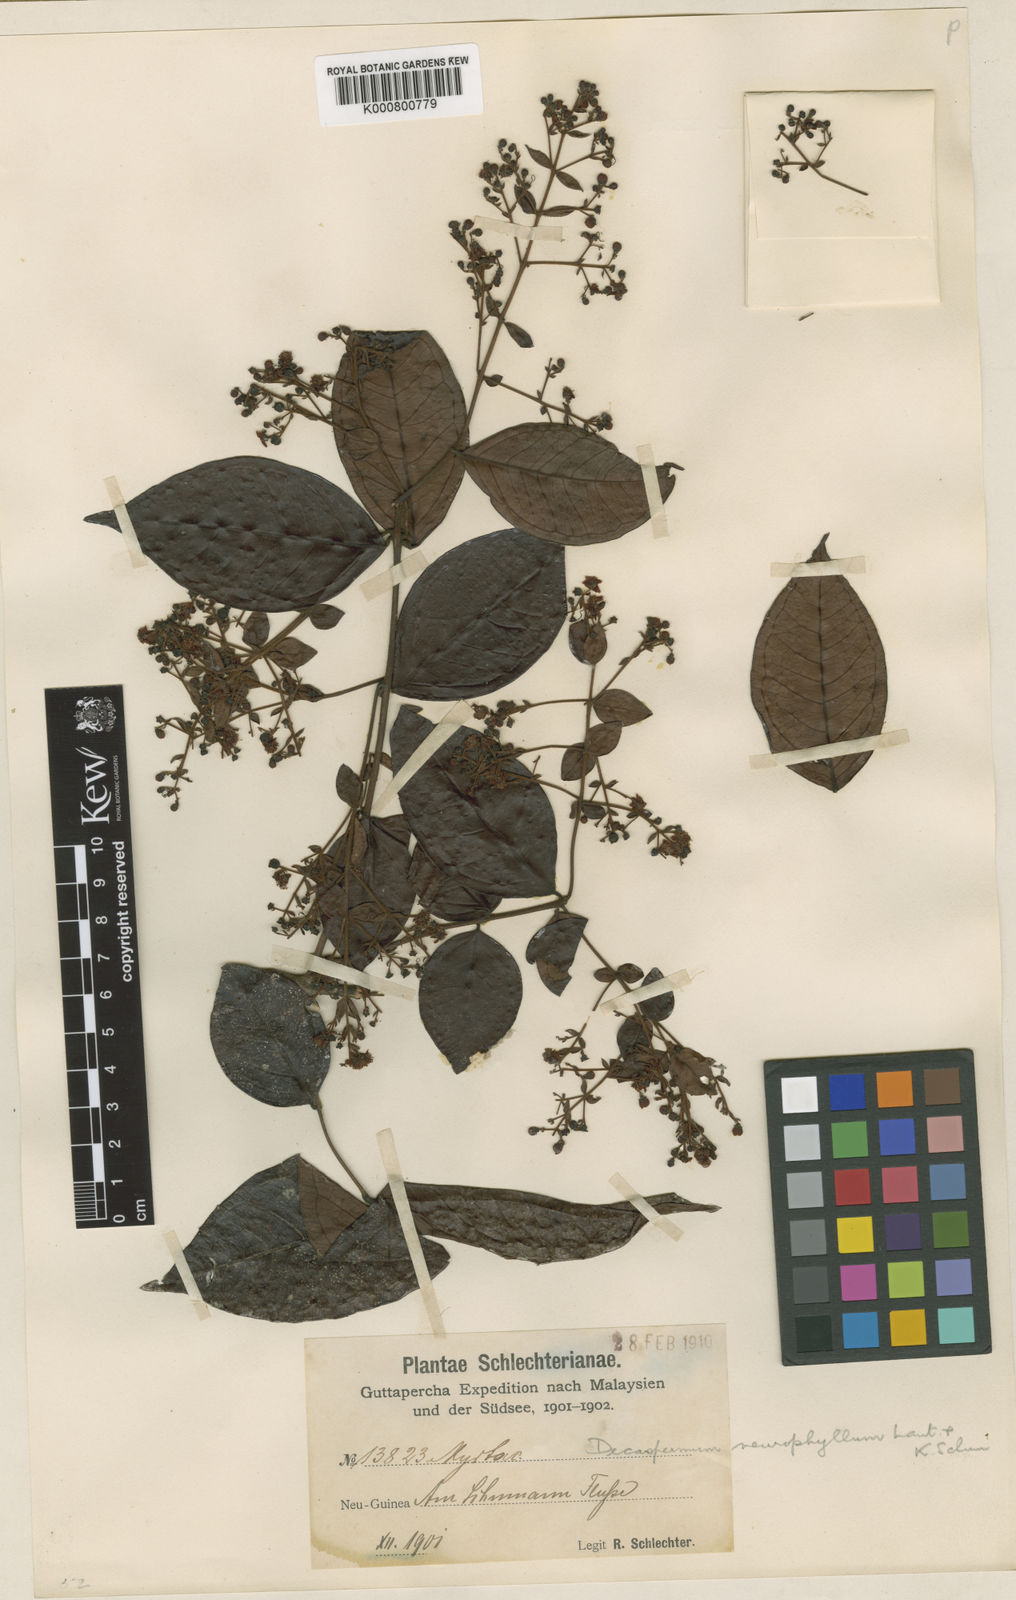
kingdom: Plantae
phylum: Tracheophyta
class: Magnoliopsida
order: Myrtales
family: Myrtaceae
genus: Decaspermum
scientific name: Decaspermum neurophyllum
